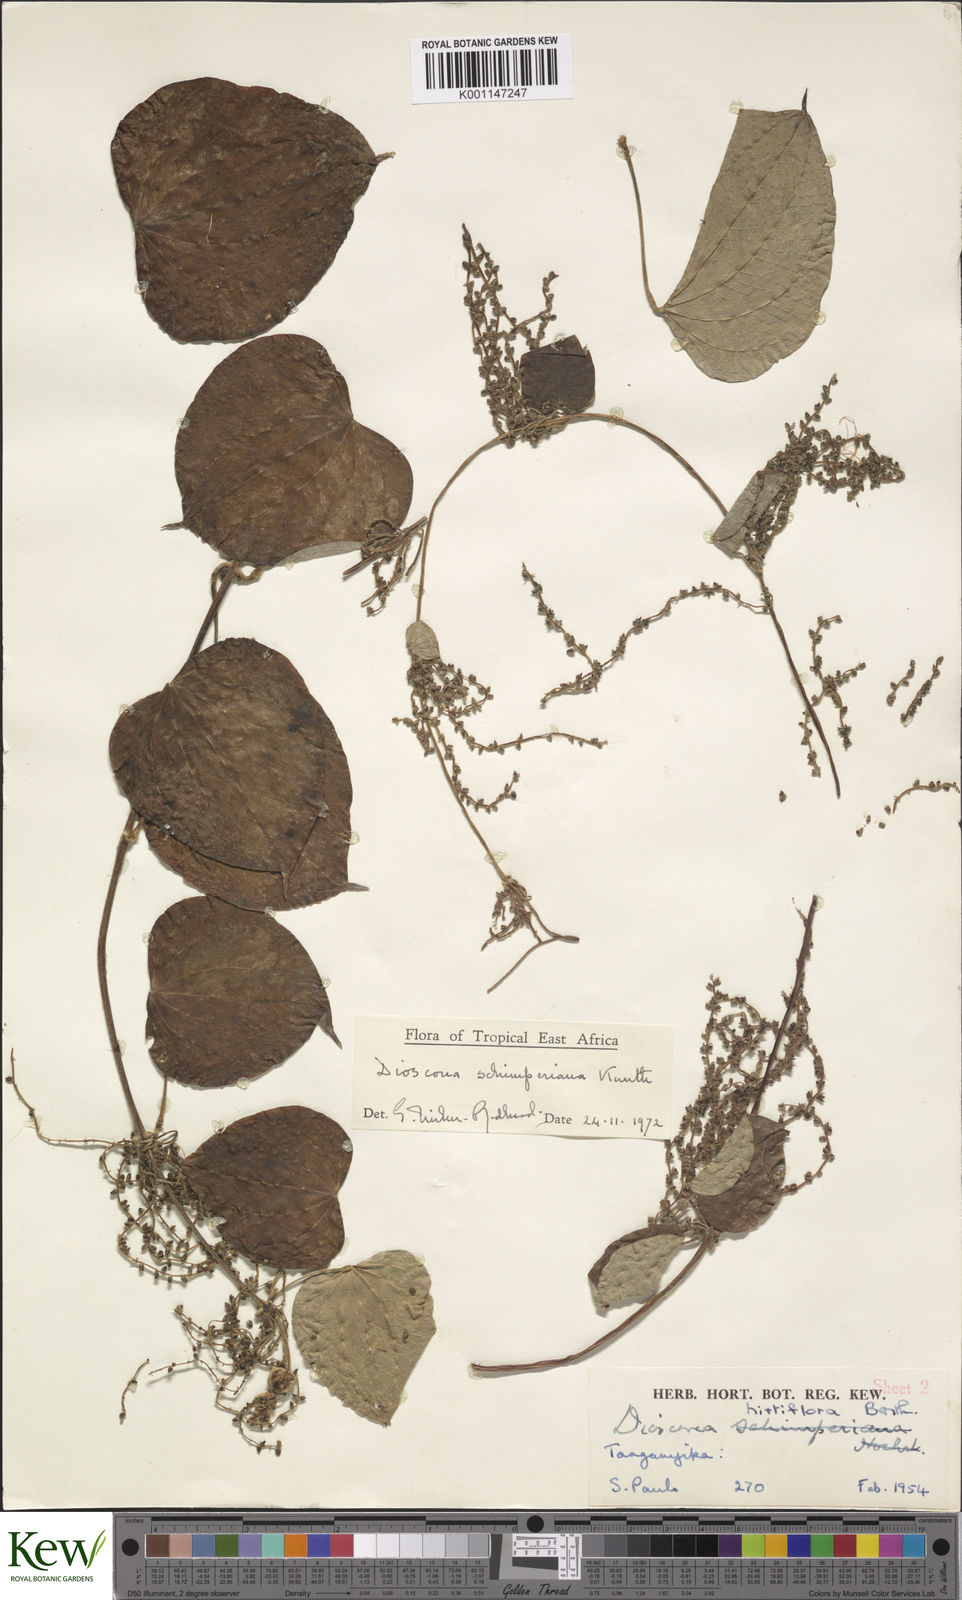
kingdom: Plantae
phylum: Tracheophyta
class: Liliopsida
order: Dioscoreales
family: Dioscoreaceae
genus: Dioscorea
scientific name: Dioscorea schimperiana
